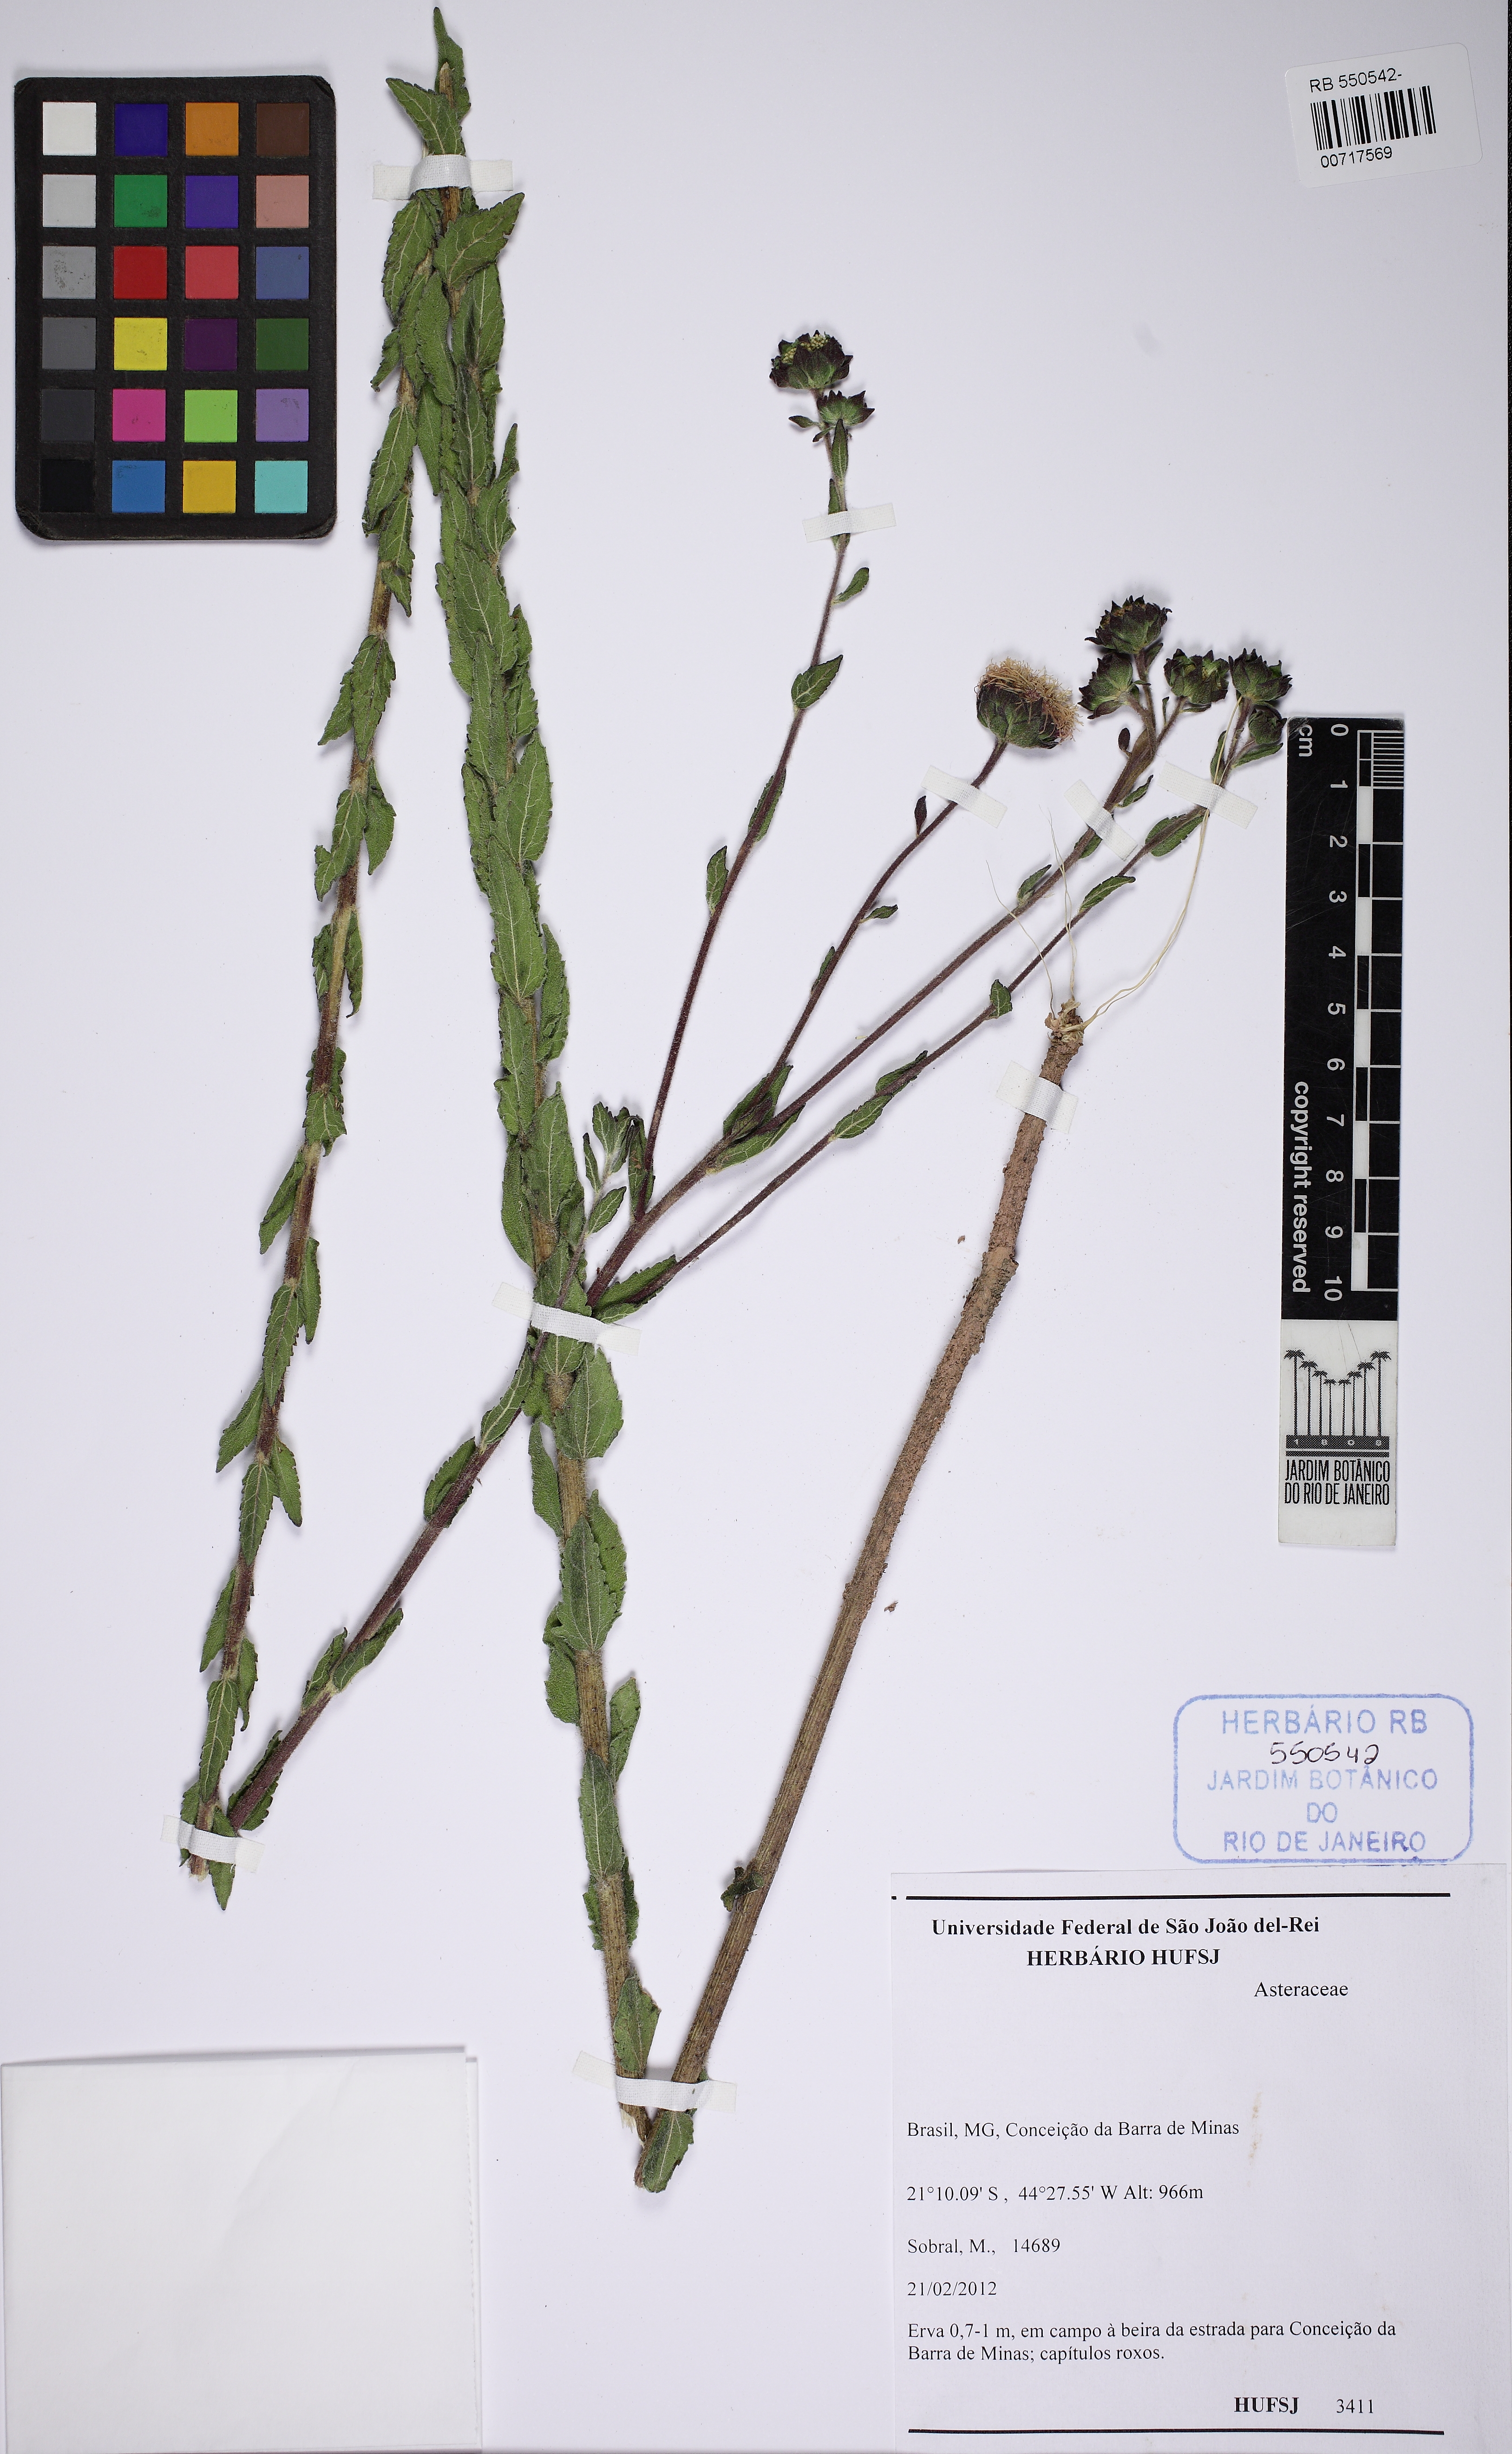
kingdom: Plantae
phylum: Tracheophyta
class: Magnoliopsida
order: Asterales
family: Asteraceae
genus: Campuloclinium
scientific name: Campuloclinium megacephalum
